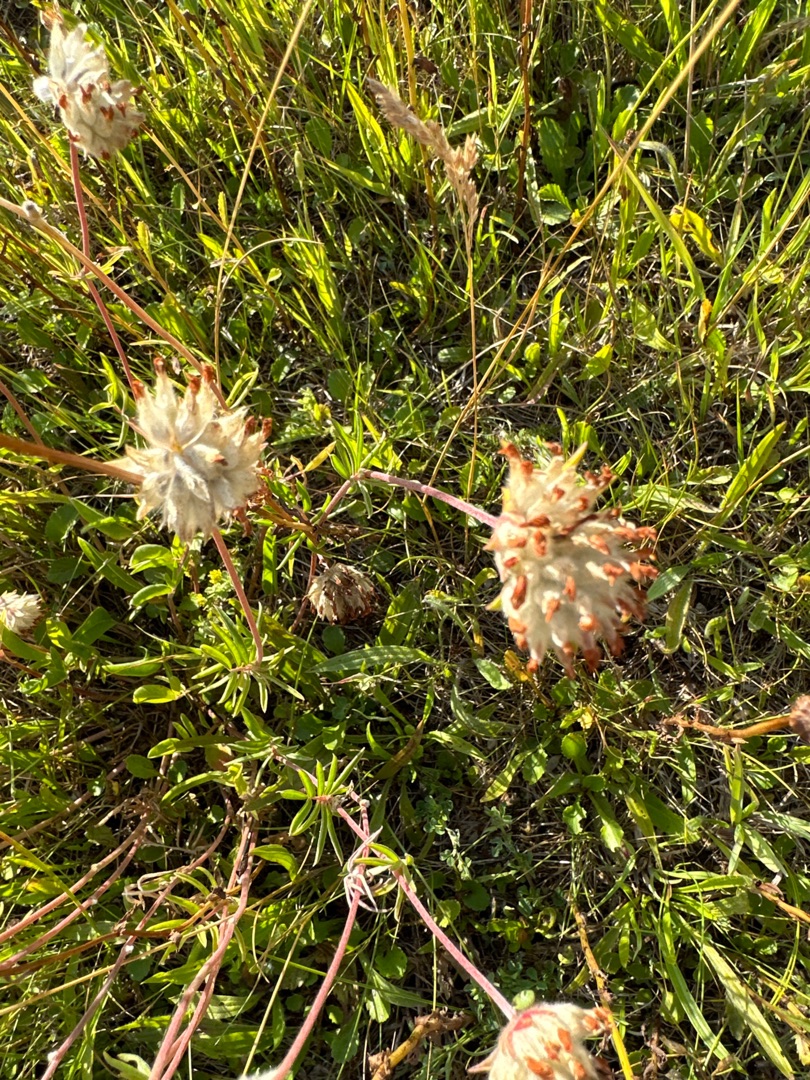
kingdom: Plantae
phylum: Tracheophyta
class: Magnoliopsida
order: Fabales
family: Fabaceae
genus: Anthyllis
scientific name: Anthyllis vulneraria
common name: Rundbælg
